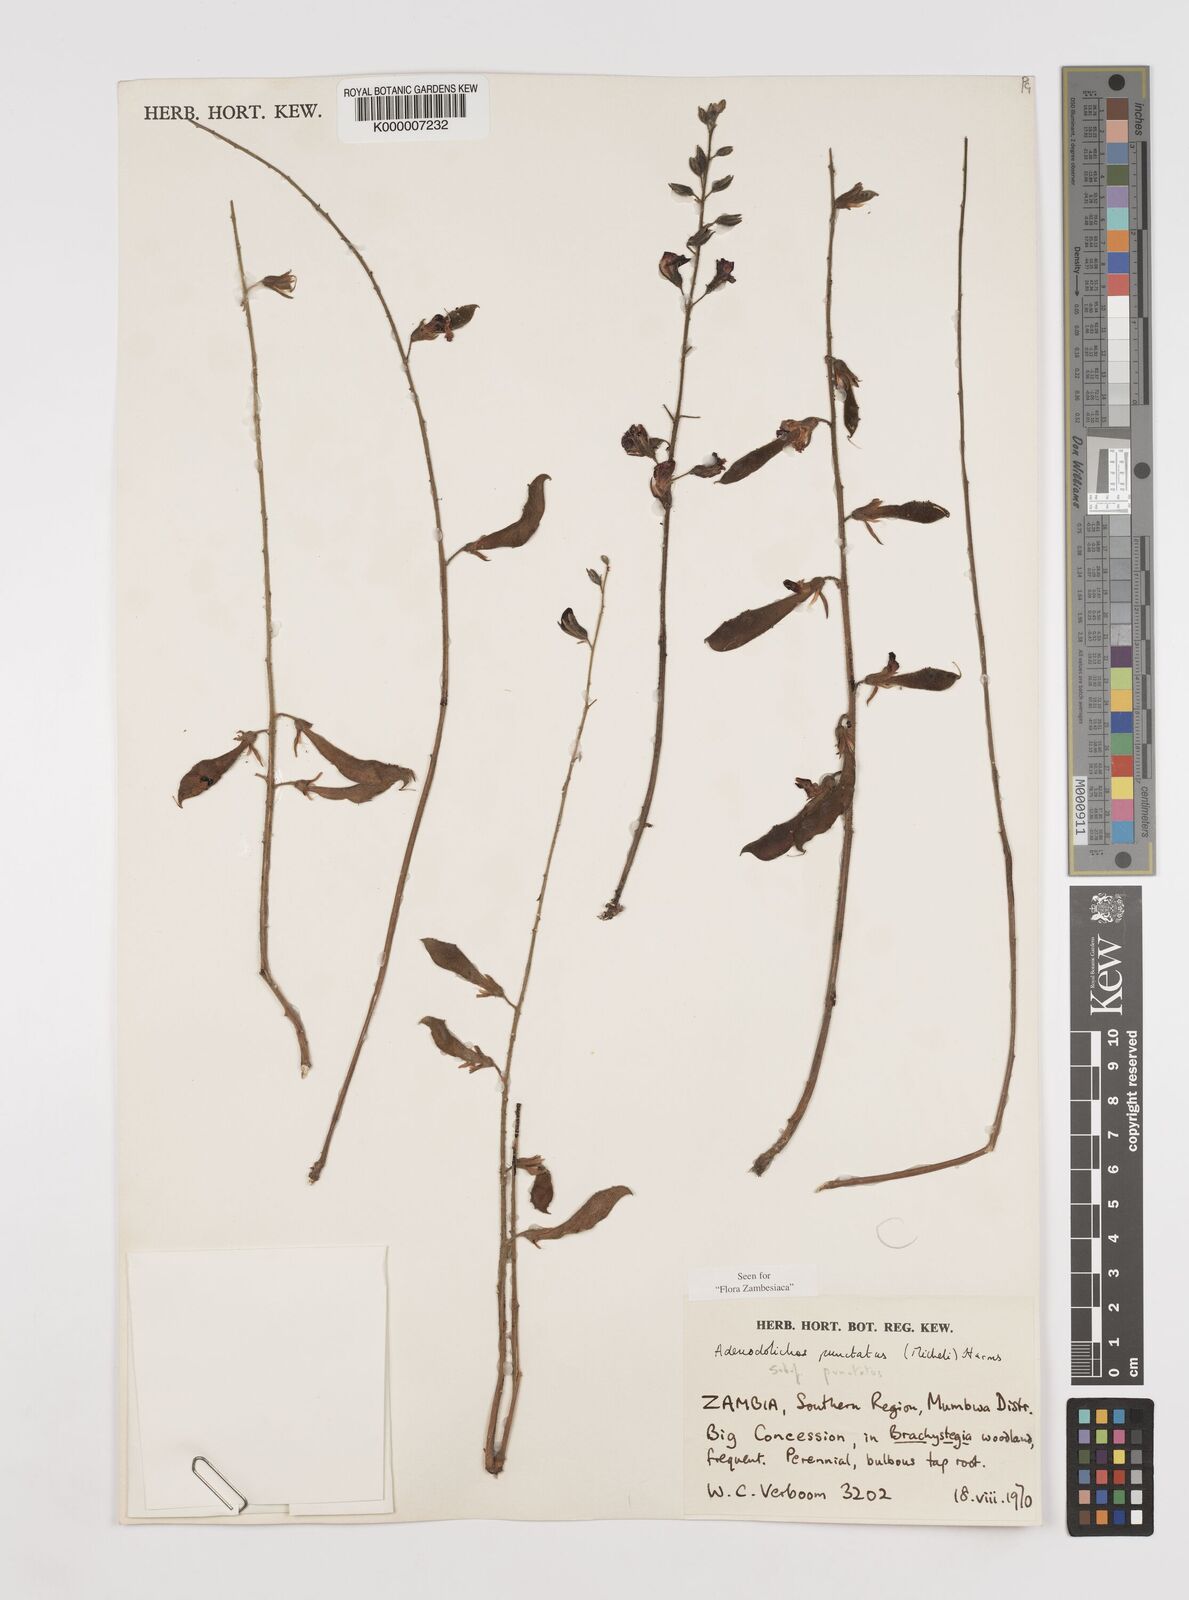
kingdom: Plantae
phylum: Tracheophyta
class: Magnoliopsida
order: Fabales
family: Fabaceae
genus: Adenodolichos
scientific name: Adenodolichos punctatus
